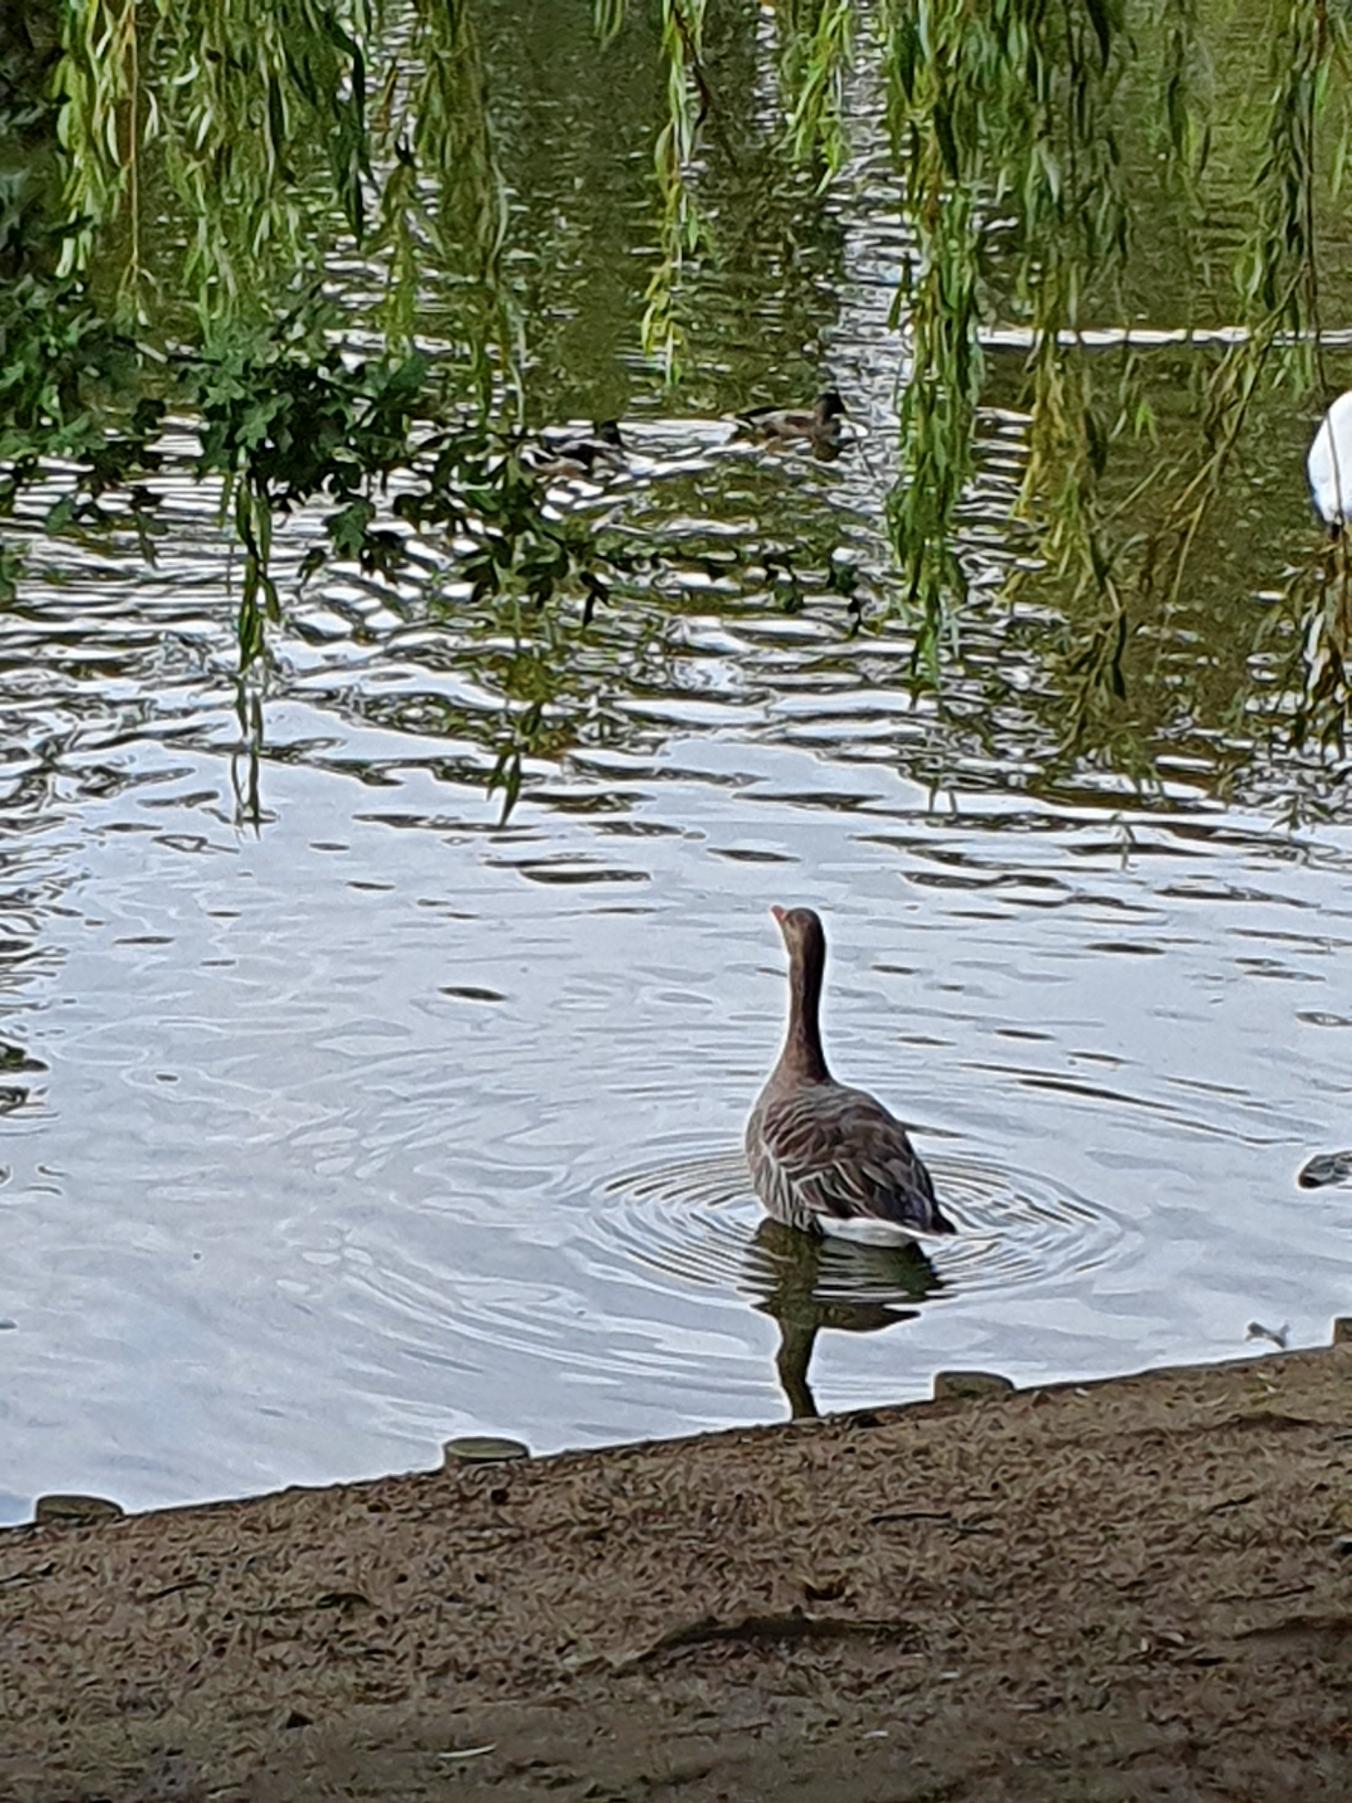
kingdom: Animalia
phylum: Chordata
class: Aves
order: Anseriformes
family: Anatidae
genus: Anser
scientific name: Anser anser
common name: Grågås
